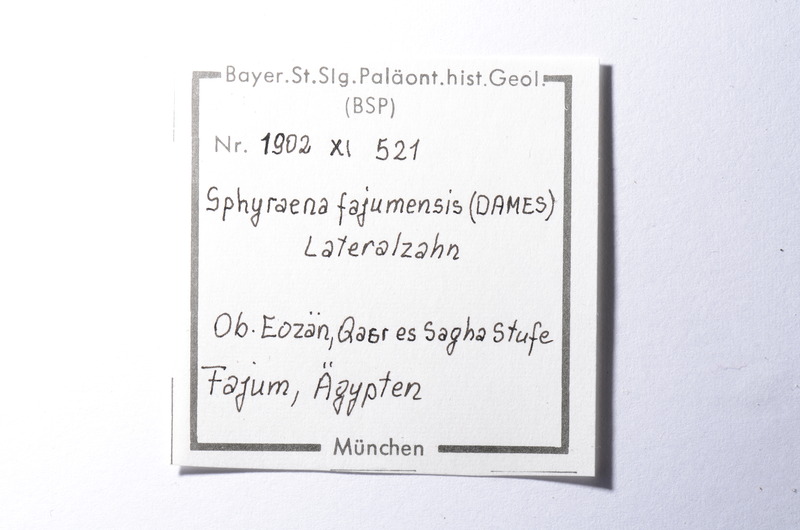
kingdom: Animalia
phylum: Chordata
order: Perciformes
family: Sphyraenidae
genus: Sphyraena
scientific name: Sphyraena Saurocephalus fajumensis
